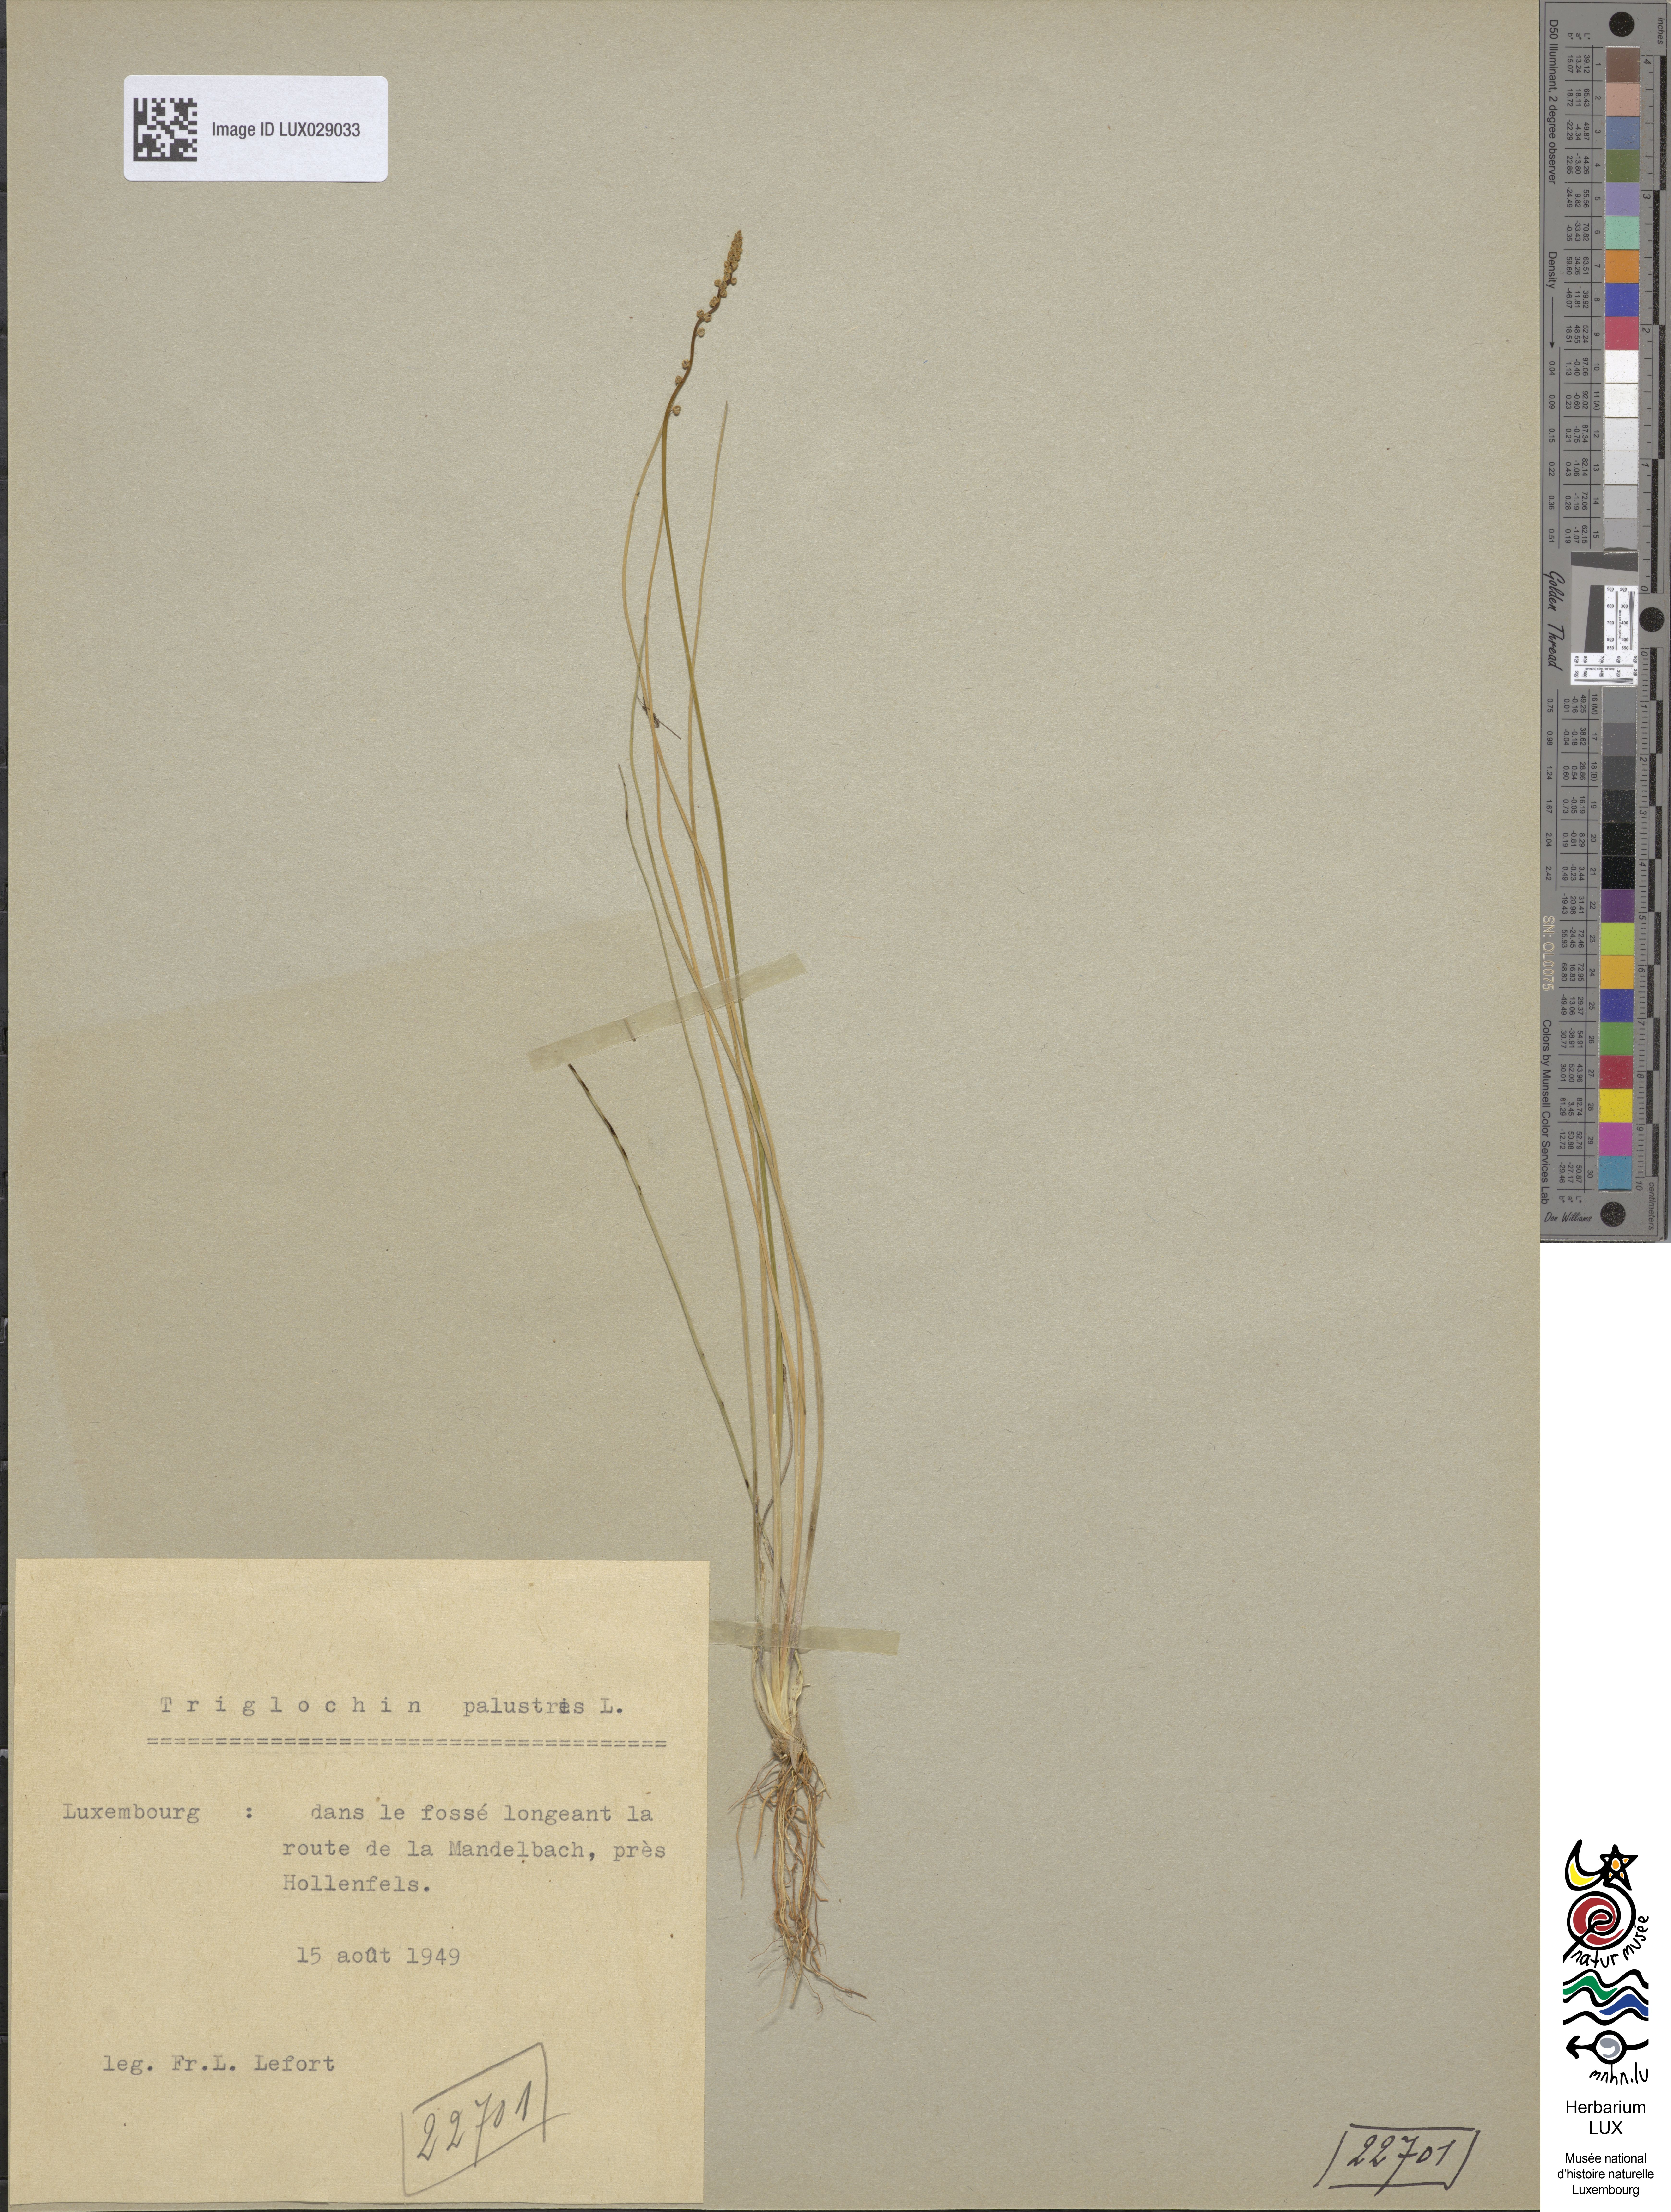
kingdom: Plantae
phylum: Tracheophyta
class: Liliopsida
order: Alismatales
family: Juncaginaceae
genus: Triglochin
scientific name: Triglochin palustris
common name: Marsh arrowgrass
